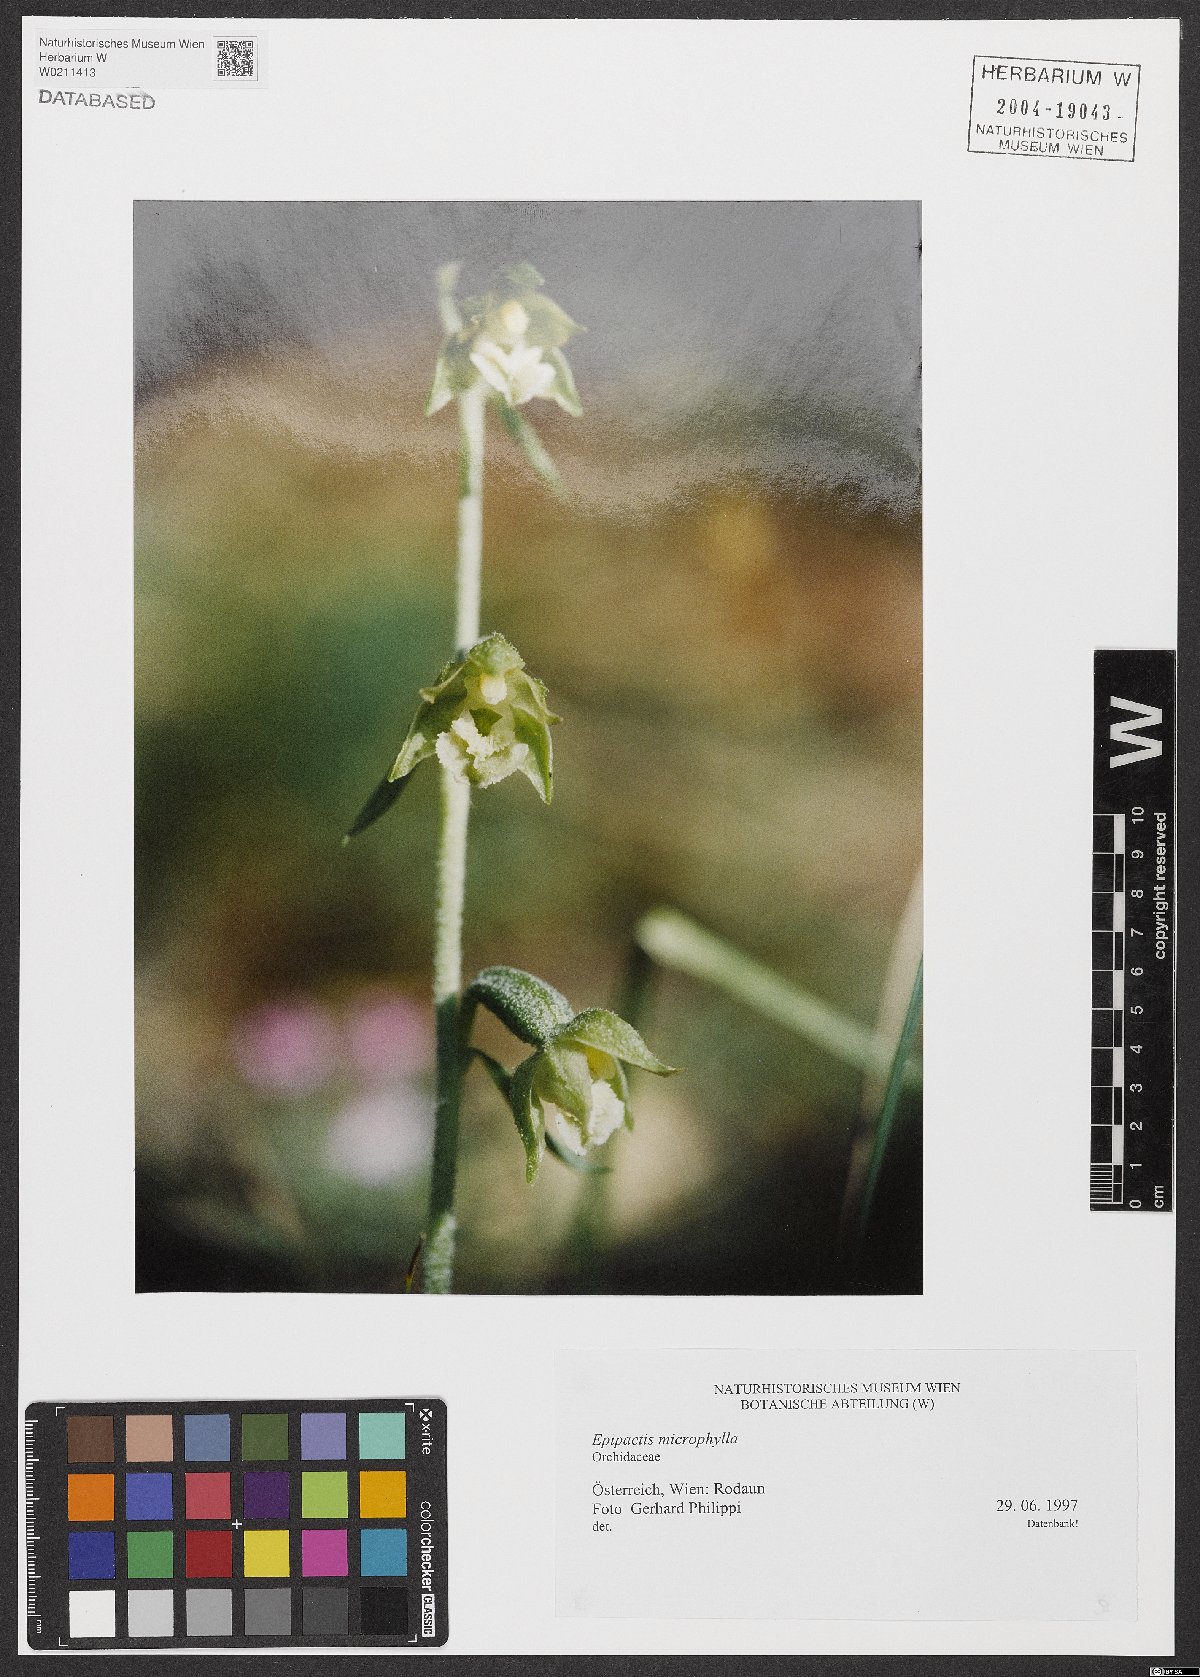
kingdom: Plantae
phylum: Tracheophyta
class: Liliopsida
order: Asparagales
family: Orchidaceae
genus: Epipactis
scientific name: Epipactis microphylla
